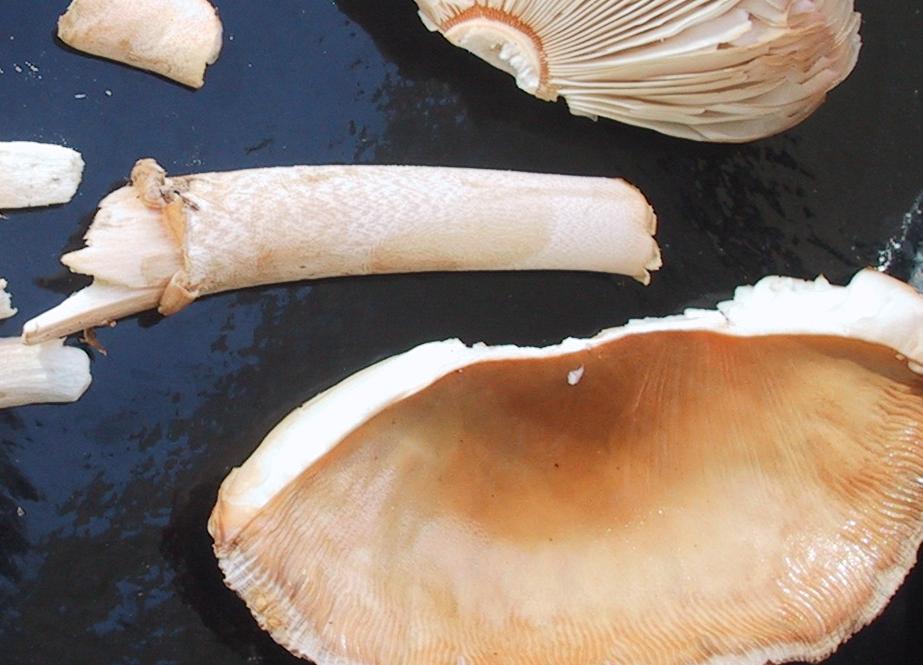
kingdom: Fungi
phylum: Basidiomycota
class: Agaricomycetes
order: Agaricales
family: Amanitaceae
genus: Amanita
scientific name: Amanita crocea
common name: gylden kam-fluesvamp
